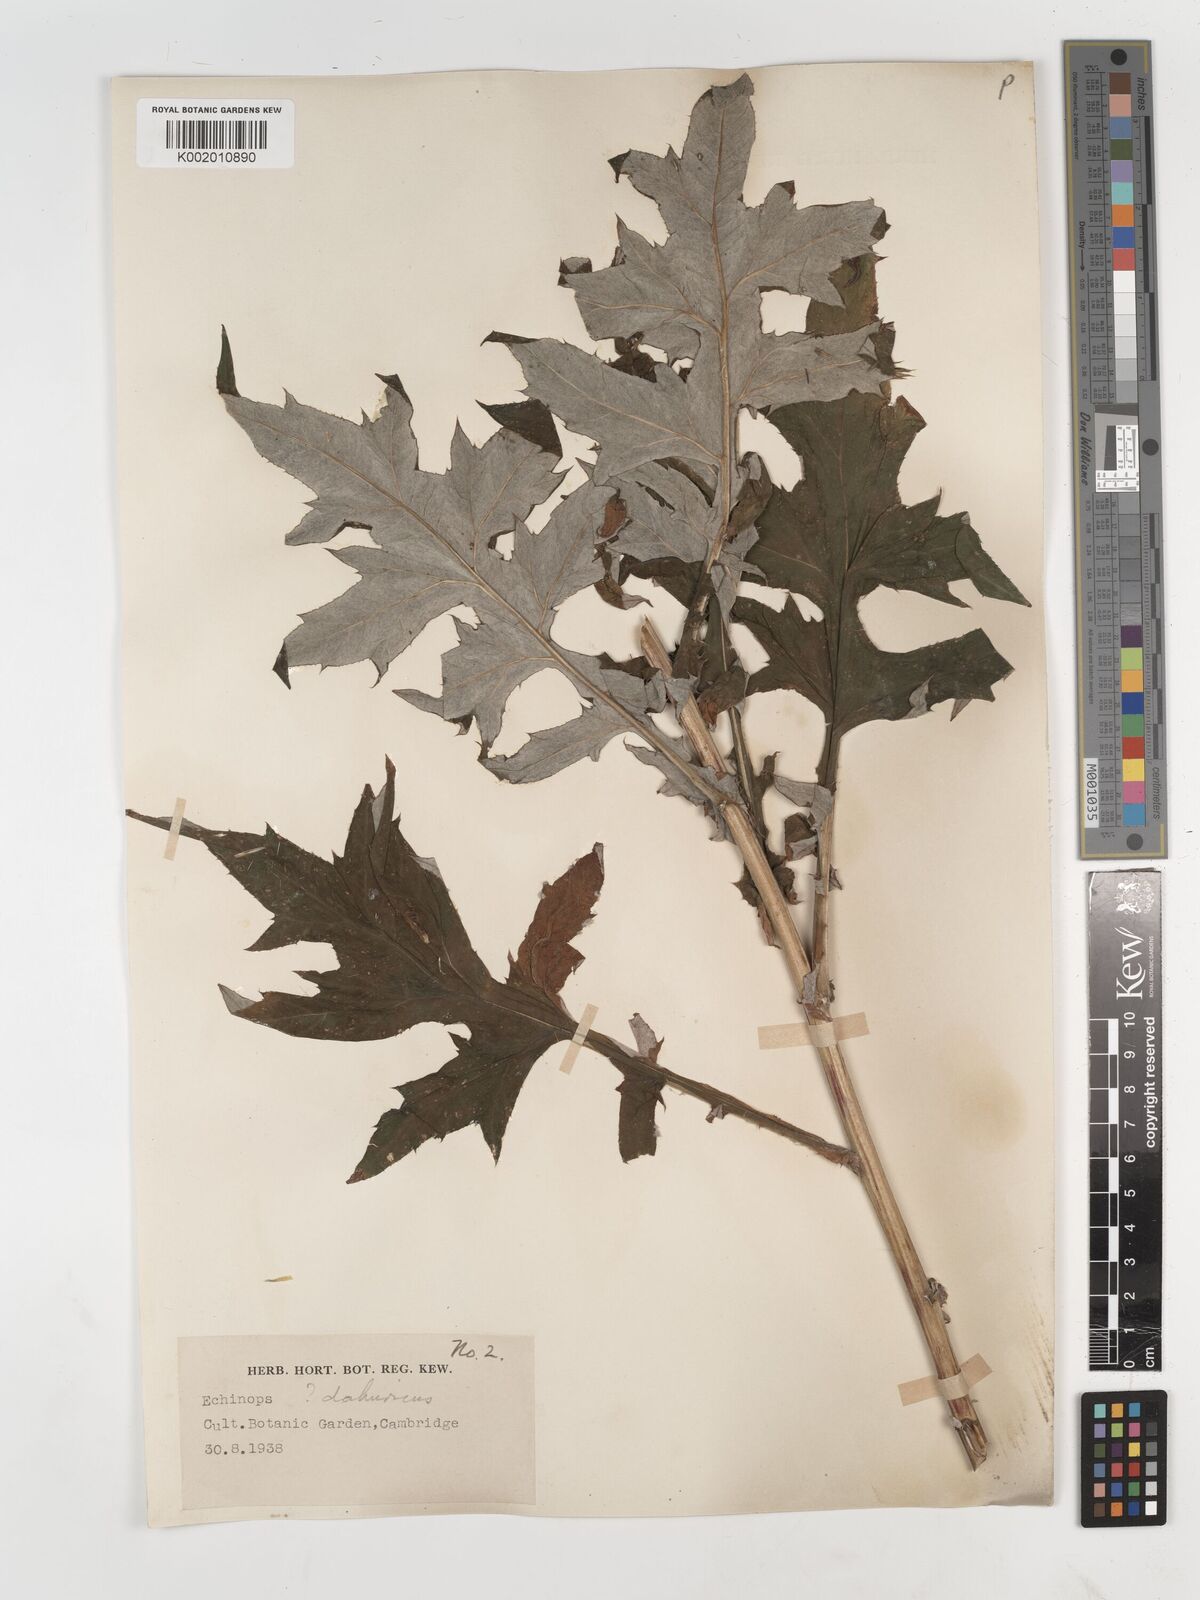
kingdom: Plantae
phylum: Tracheophyta
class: Magnoliopsida
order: Asterales
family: Asteraceae
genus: Echinops
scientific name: Echinops humilis
